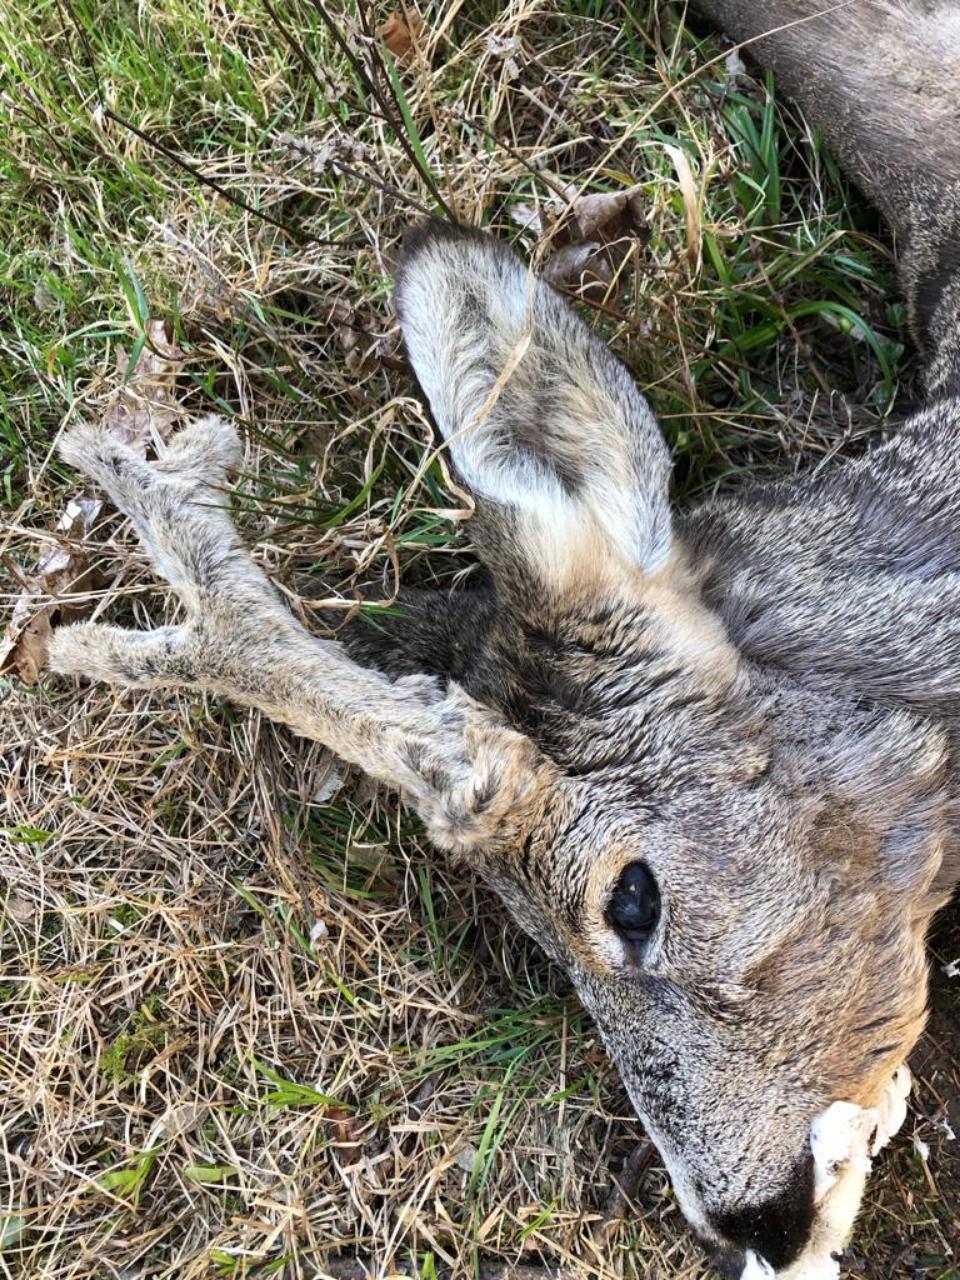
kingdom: Animalia
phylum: Chordata
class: Mammalia
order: Artiodactyla
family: Cervidae
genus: Capreolus
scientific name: Capreolus capreolus
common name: Western roe deer
